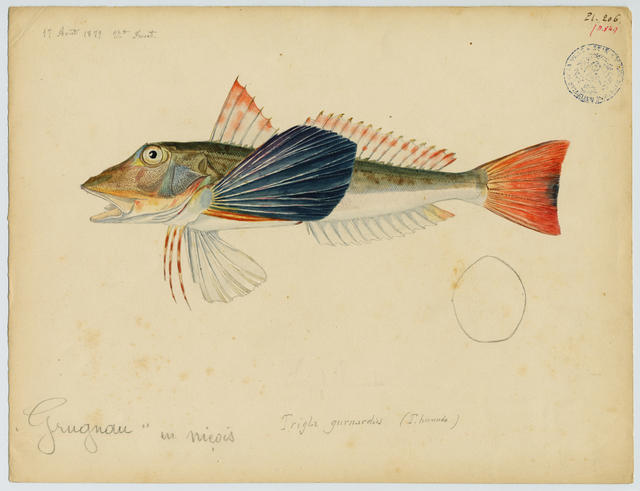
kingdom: Animalia
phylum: Chordata
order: Scorpaeniformes
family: Triglidae
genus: Chelidonichthys
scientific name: Chelidonichthys lucerna
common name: Tub gurnard
